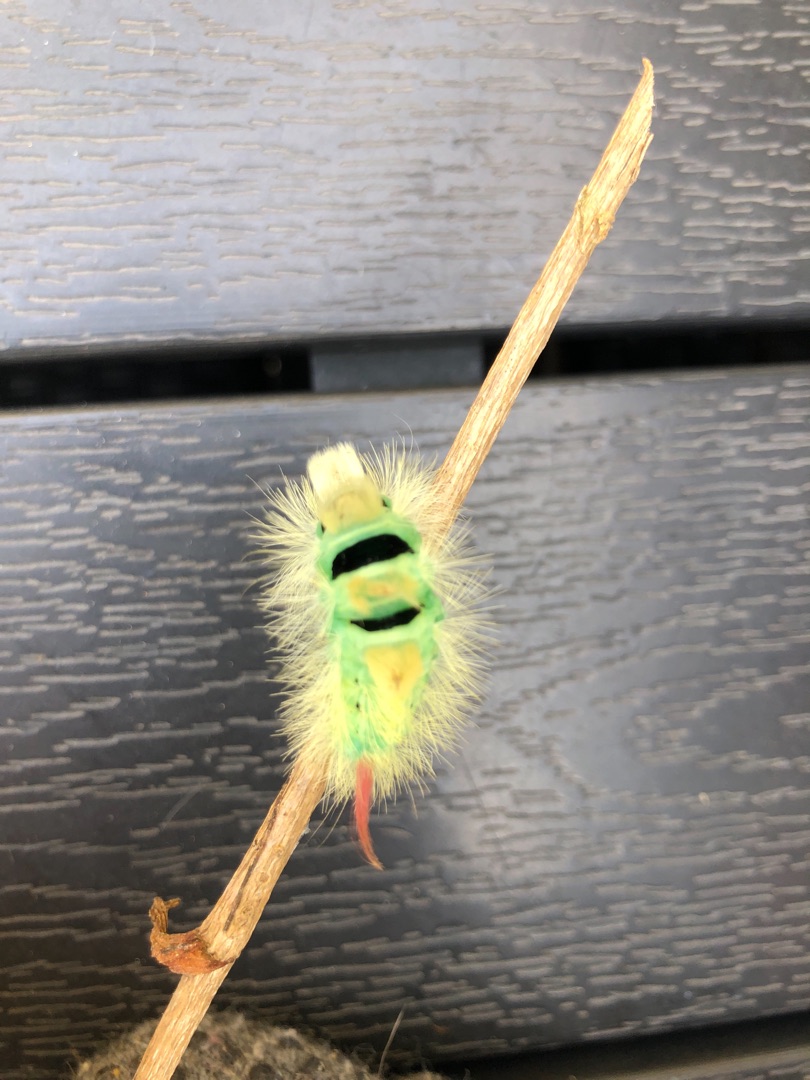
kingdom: Animalia
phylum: Arthropoda
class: Insecta
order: Lepidoptera
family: Erebidae
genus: Calliteara
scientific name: Calliteara pudibunda
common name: Bøgenonne
